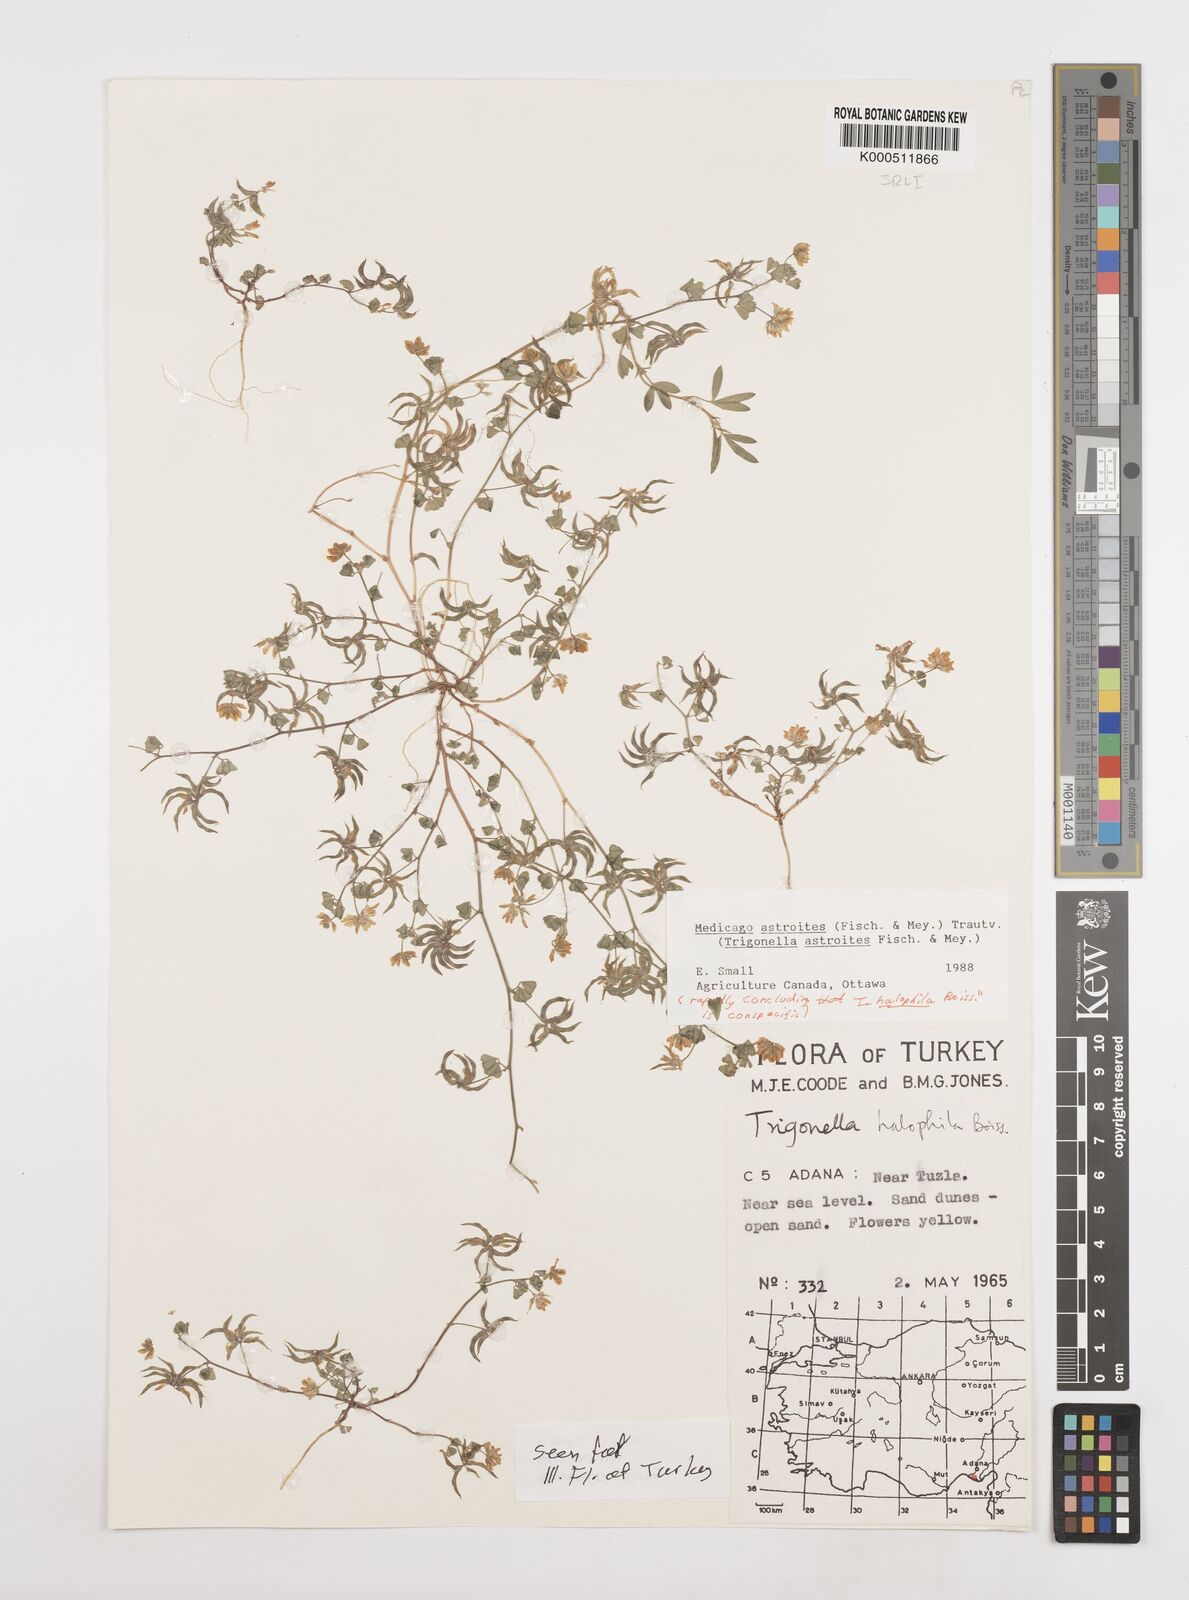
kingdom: Plantae
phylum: Tracheophyta
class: Magnoliopsida
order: Fabales
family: Fabaceae
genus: Medicago
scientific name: Medicago astroites
